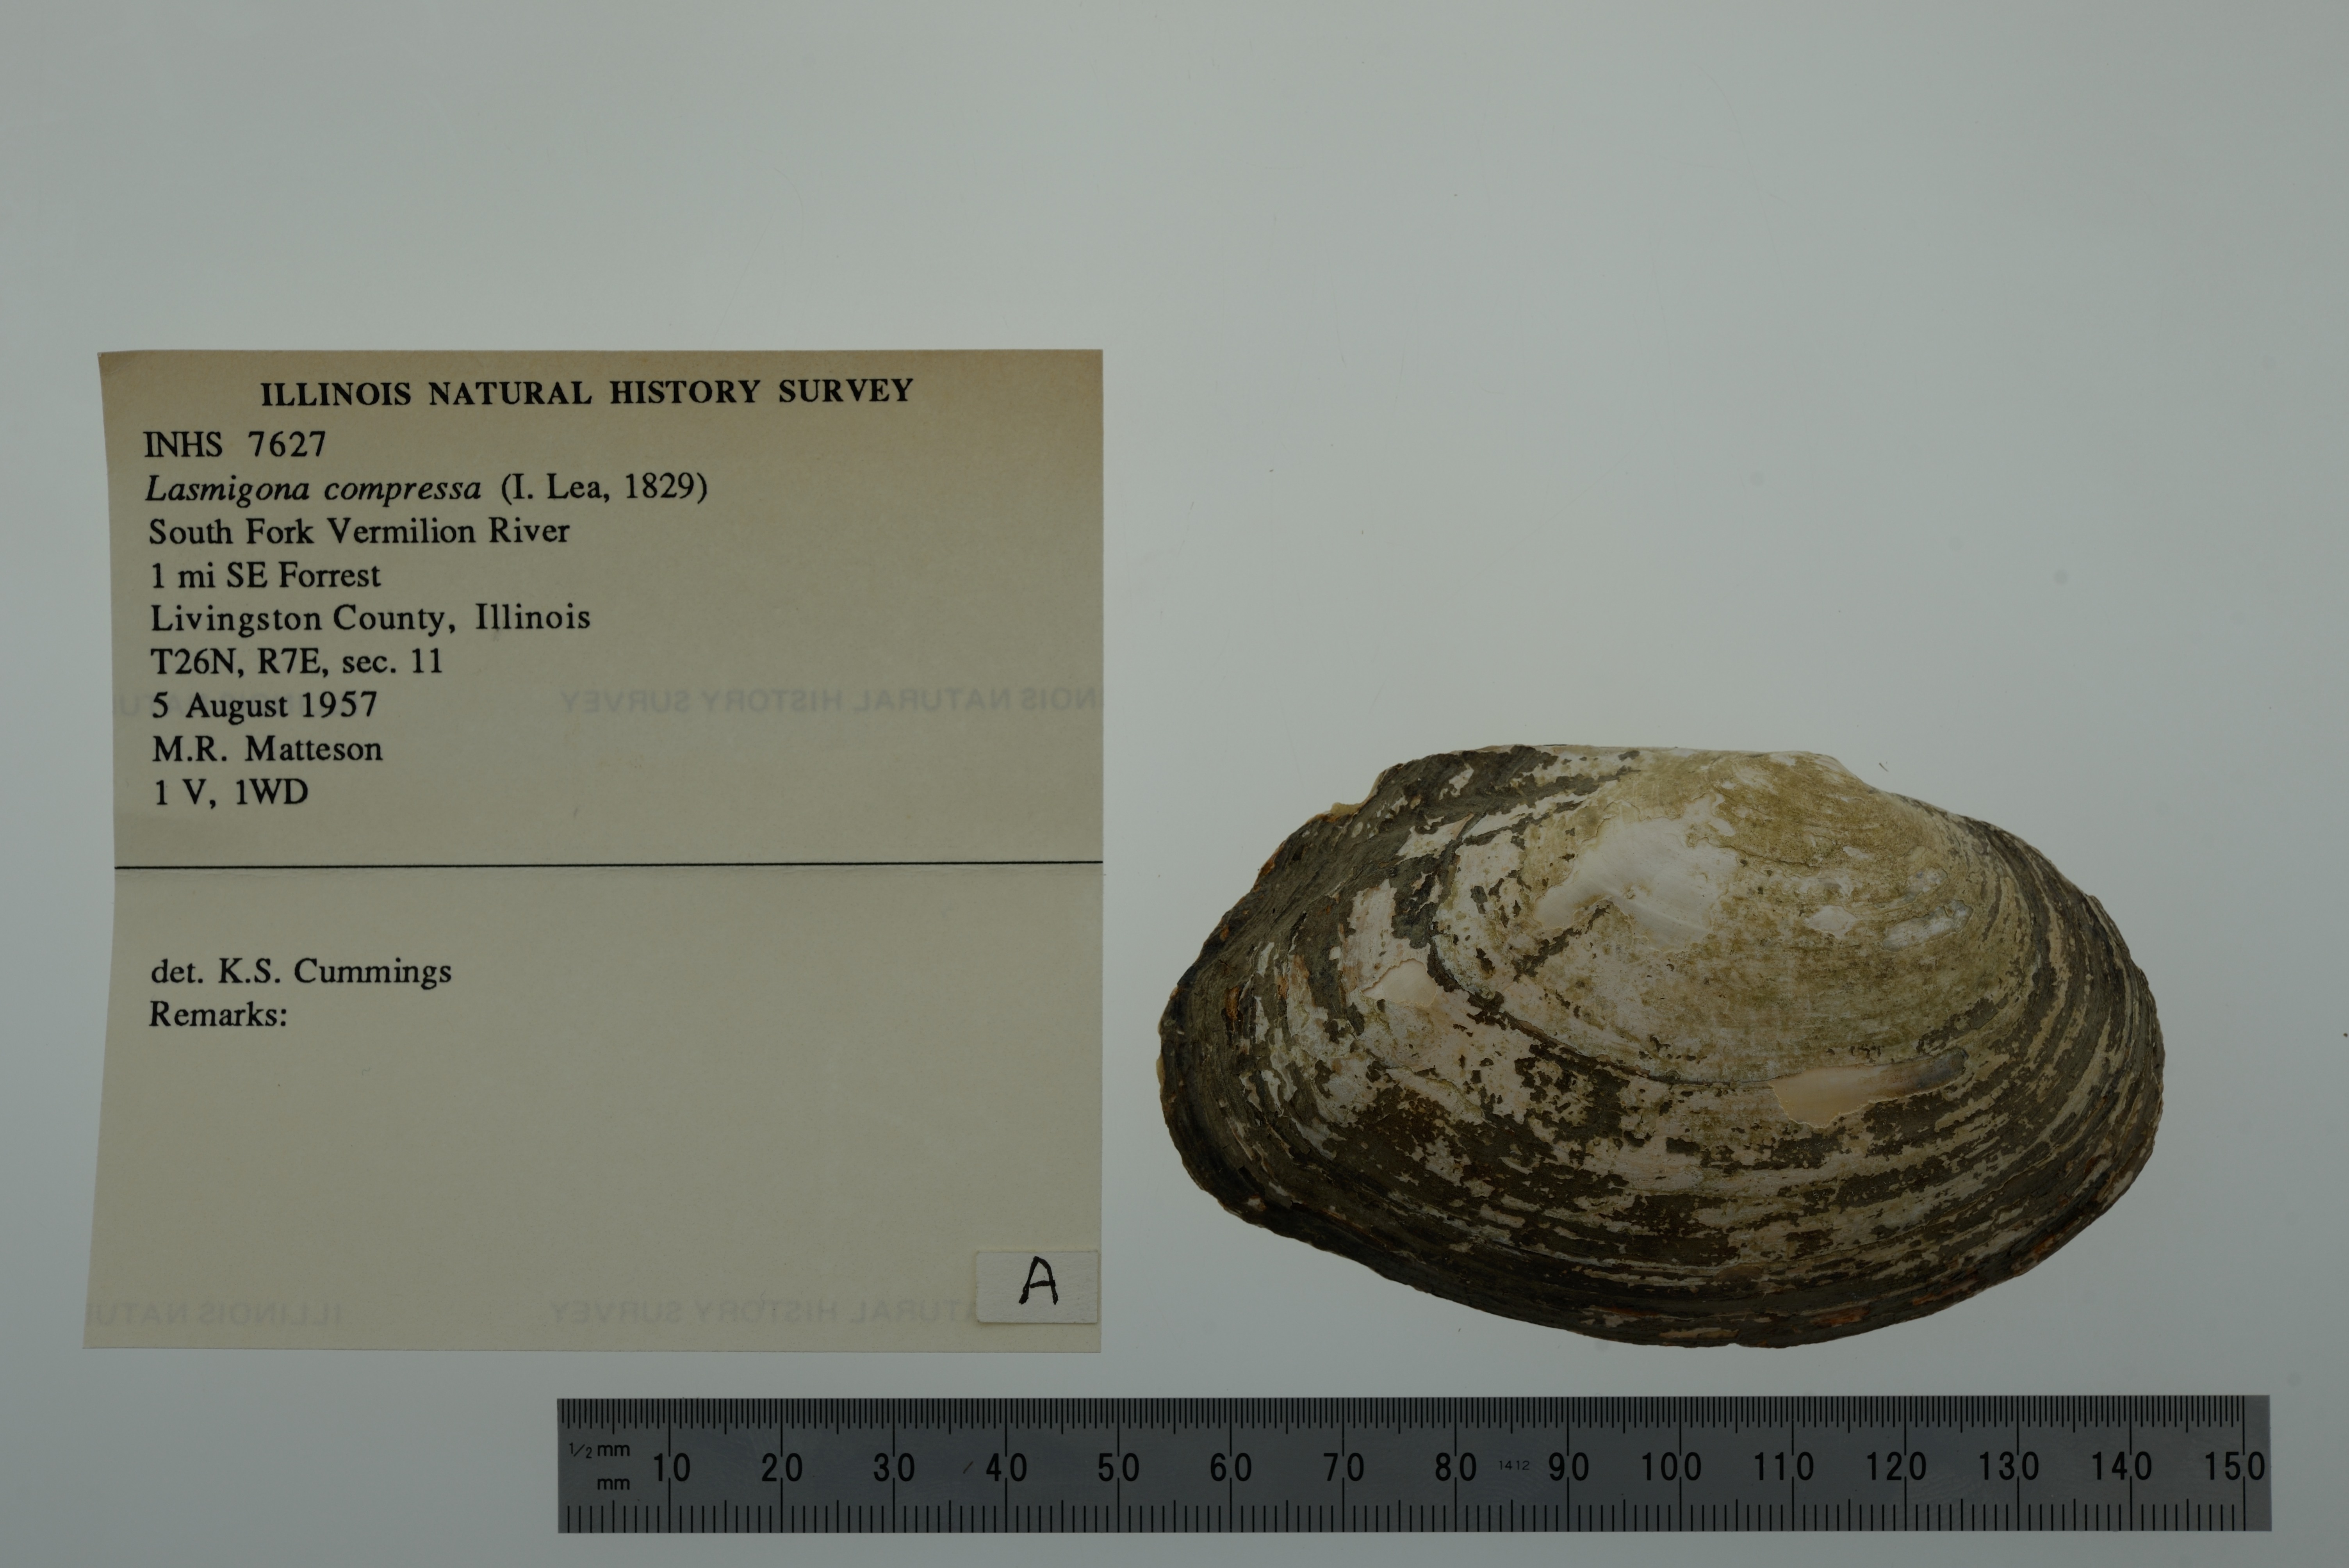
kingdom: Animalia
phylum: Mollusca
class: Bivalvia
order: Unionida
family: Unionidae
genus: Lasmigona
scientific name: Lasmigona compressa
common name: Creek heelsplitter
